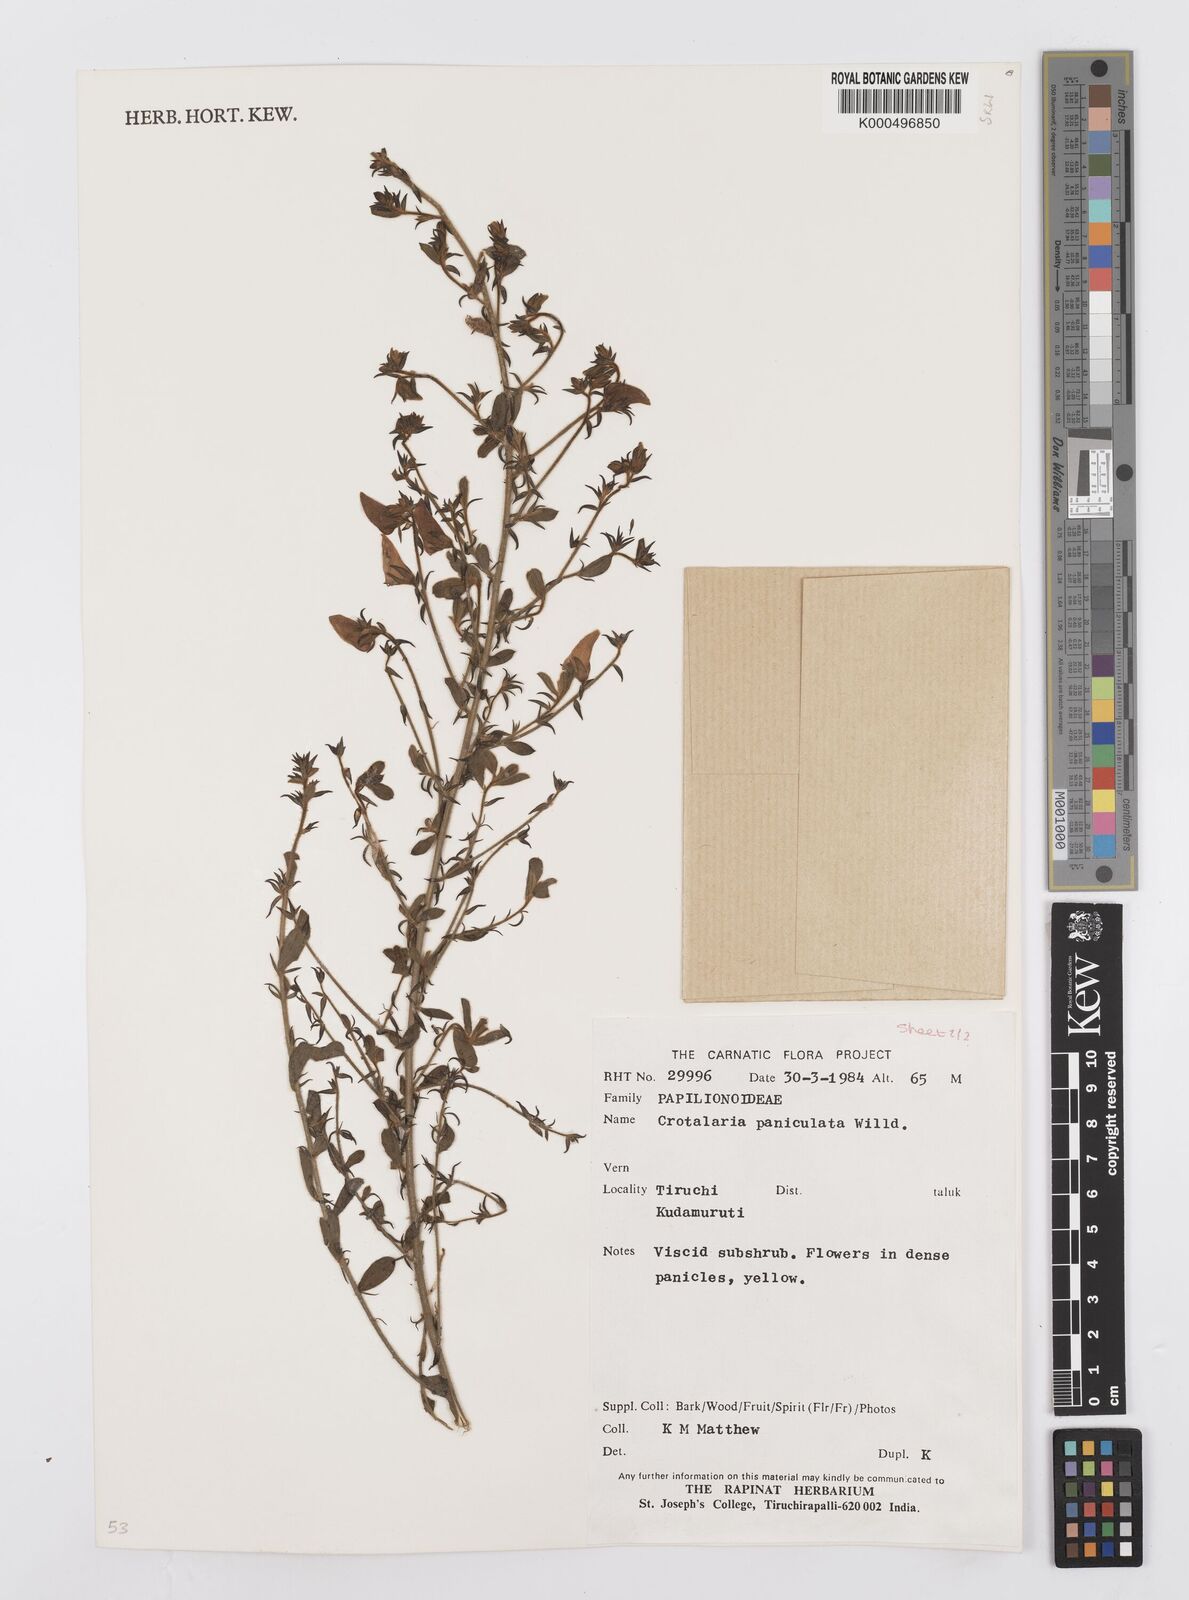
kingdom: Plantae
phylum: Tracheophyta
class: Magnoliopsida
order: Fabales
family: Fabaceae
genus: Crotalaria
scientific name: Crotalaria paniculata
